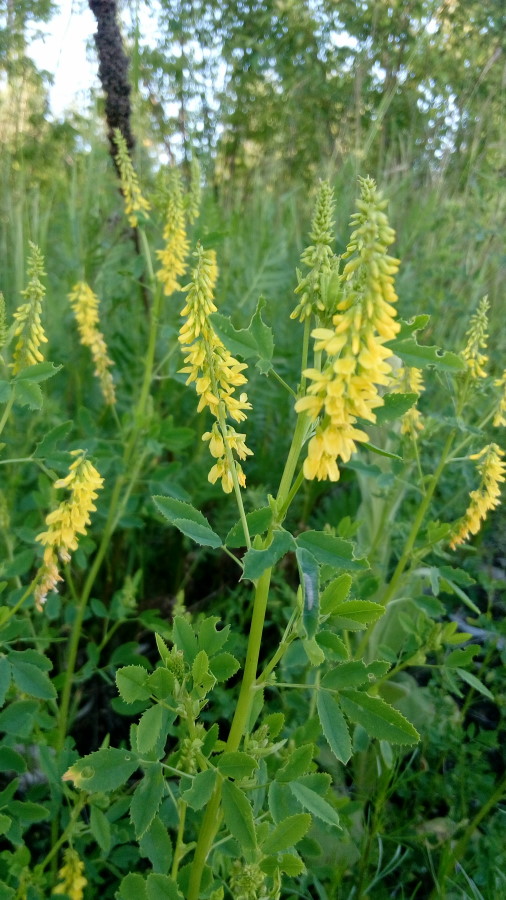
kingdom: Plantae
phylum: Tracheophyta
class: Magnoliopsida
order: Fabales
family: Fabaceae
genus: Melilotus
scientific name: Melilotus officinalis
